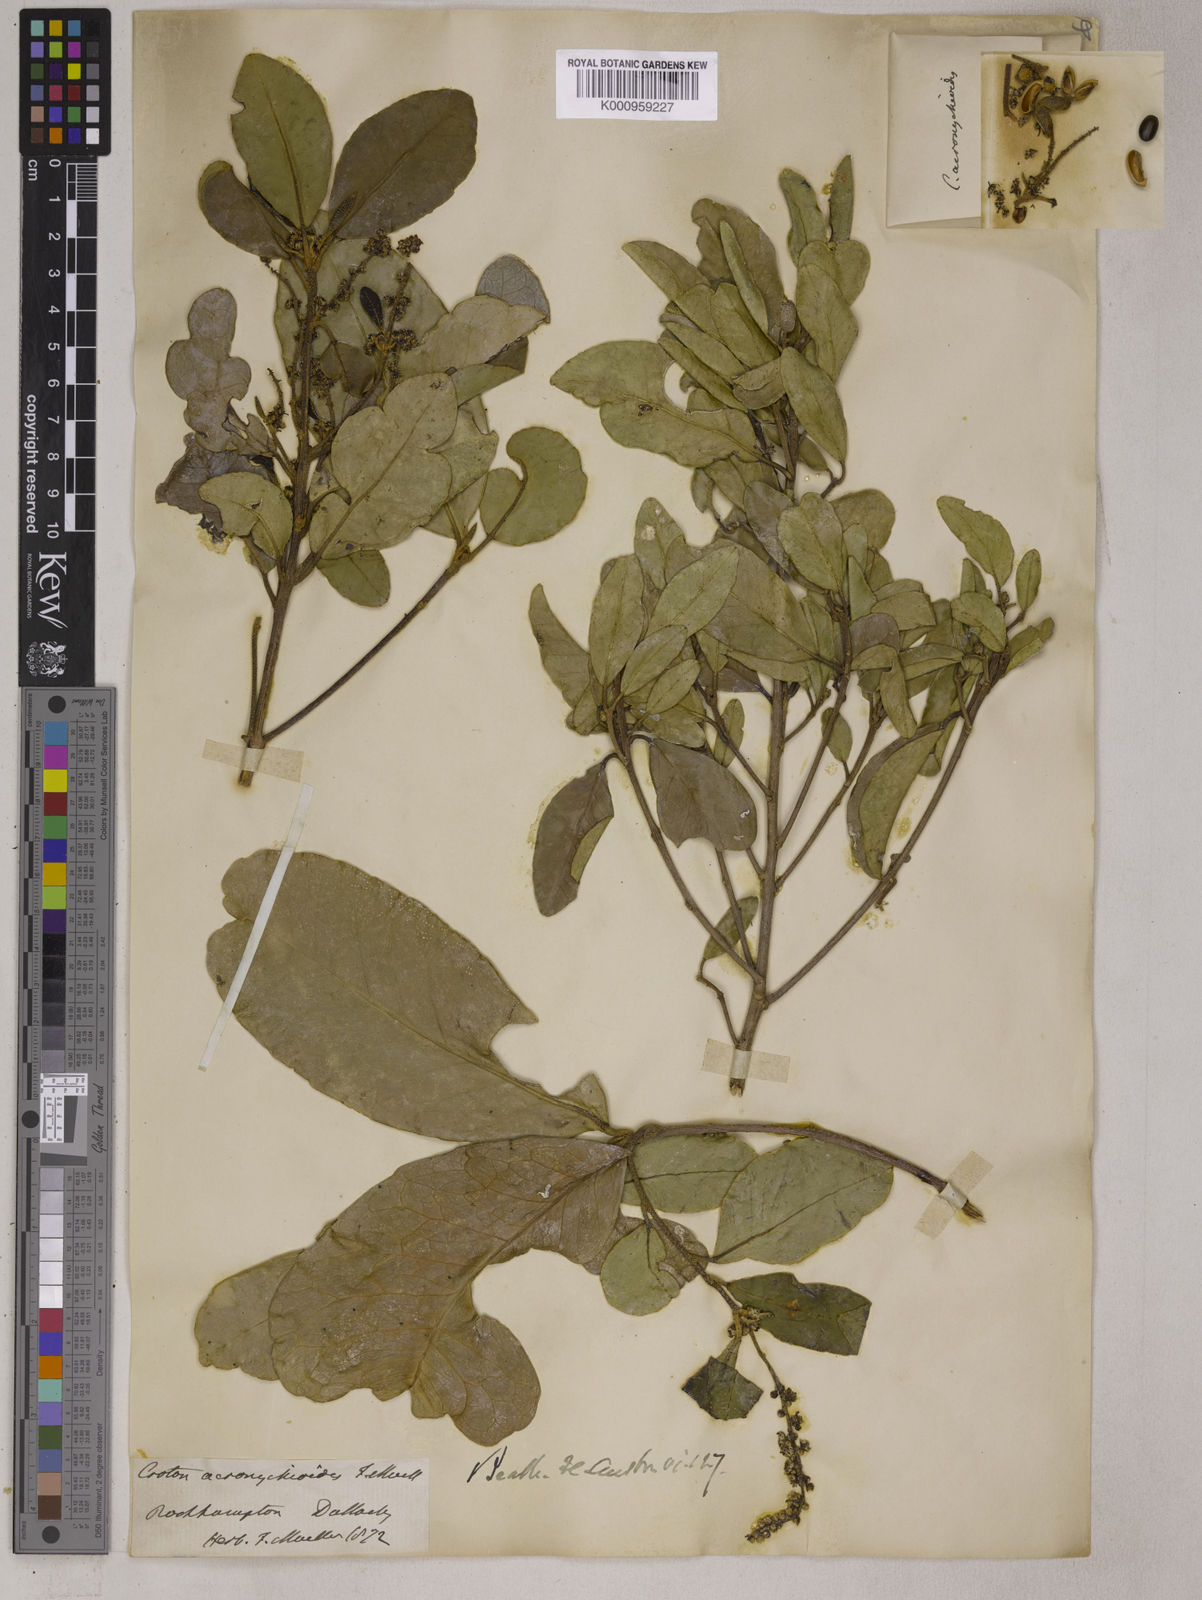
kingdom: Plantae
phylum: Tracheophyta
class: Magnoliopsida
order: Malpighiales
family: Euphorbiaceae
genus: Croton
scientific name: Croton acronychioides
